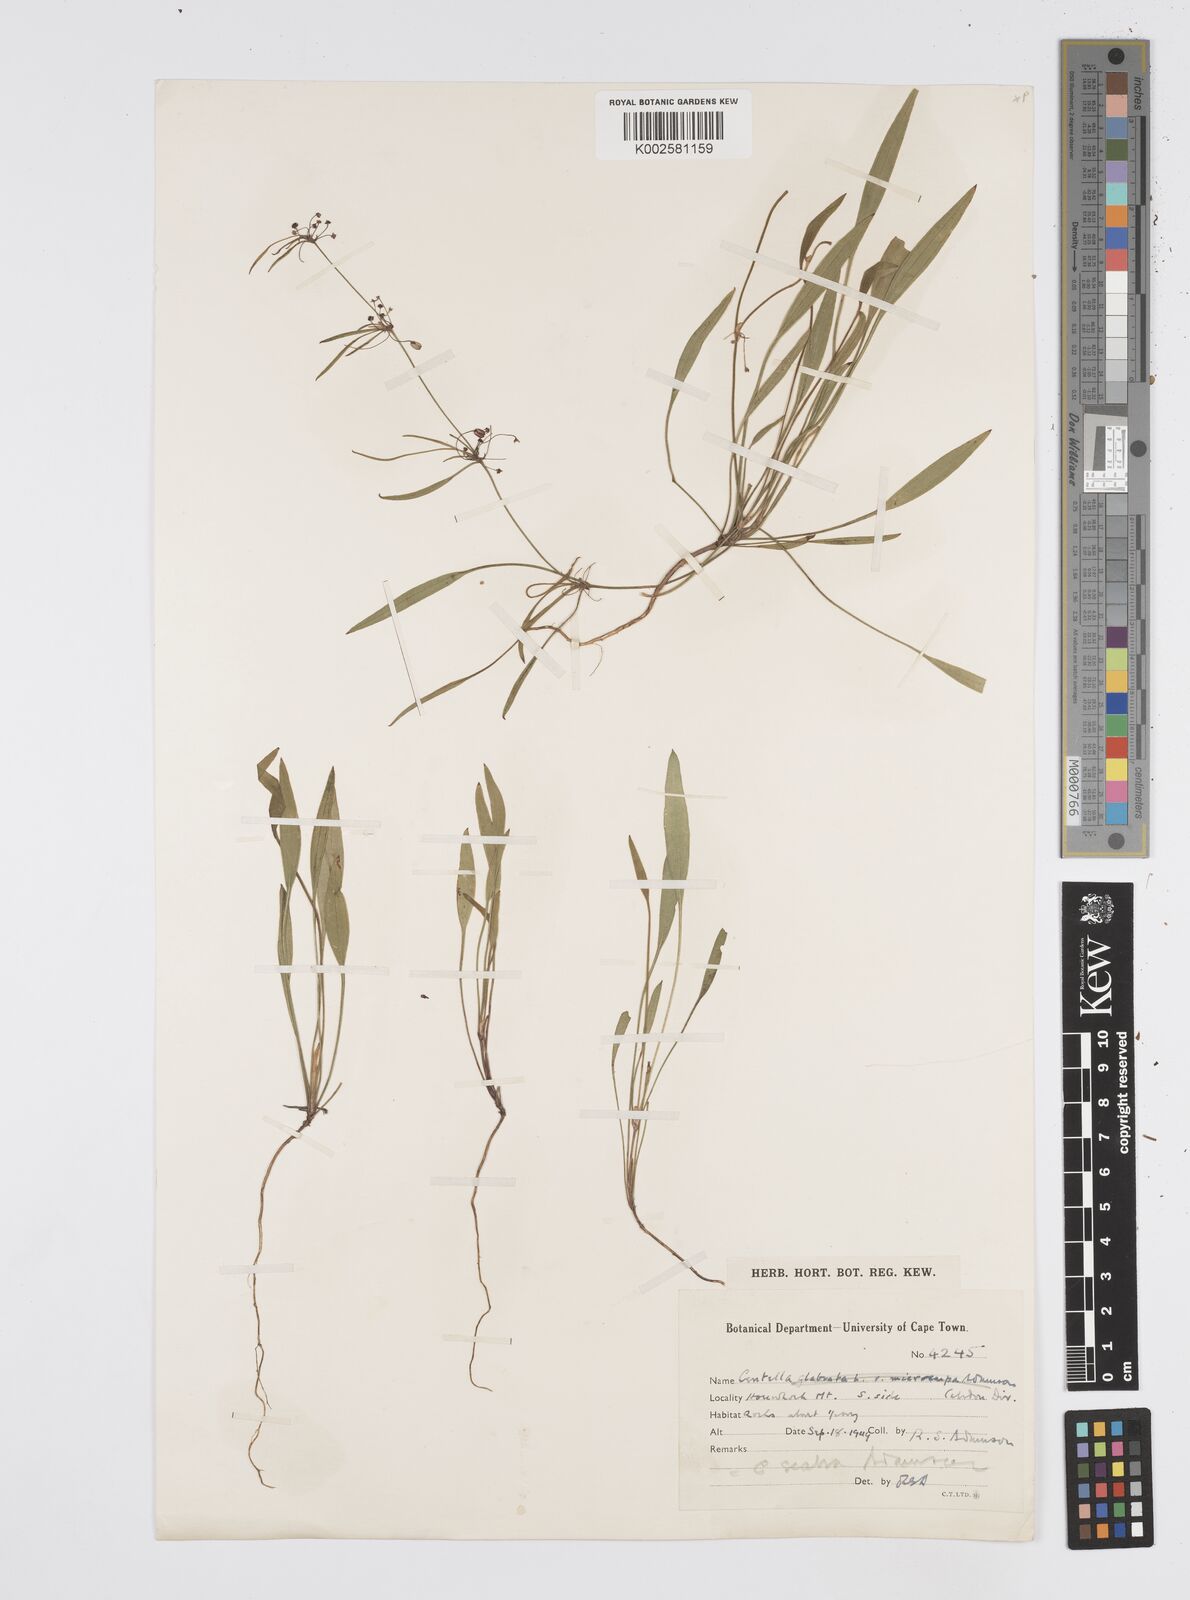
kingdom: Plantae
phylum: Tracheophyta
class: Magnoliopsida
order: Apiales
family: Apiaceae
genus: Centella
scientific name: Centella scabra
